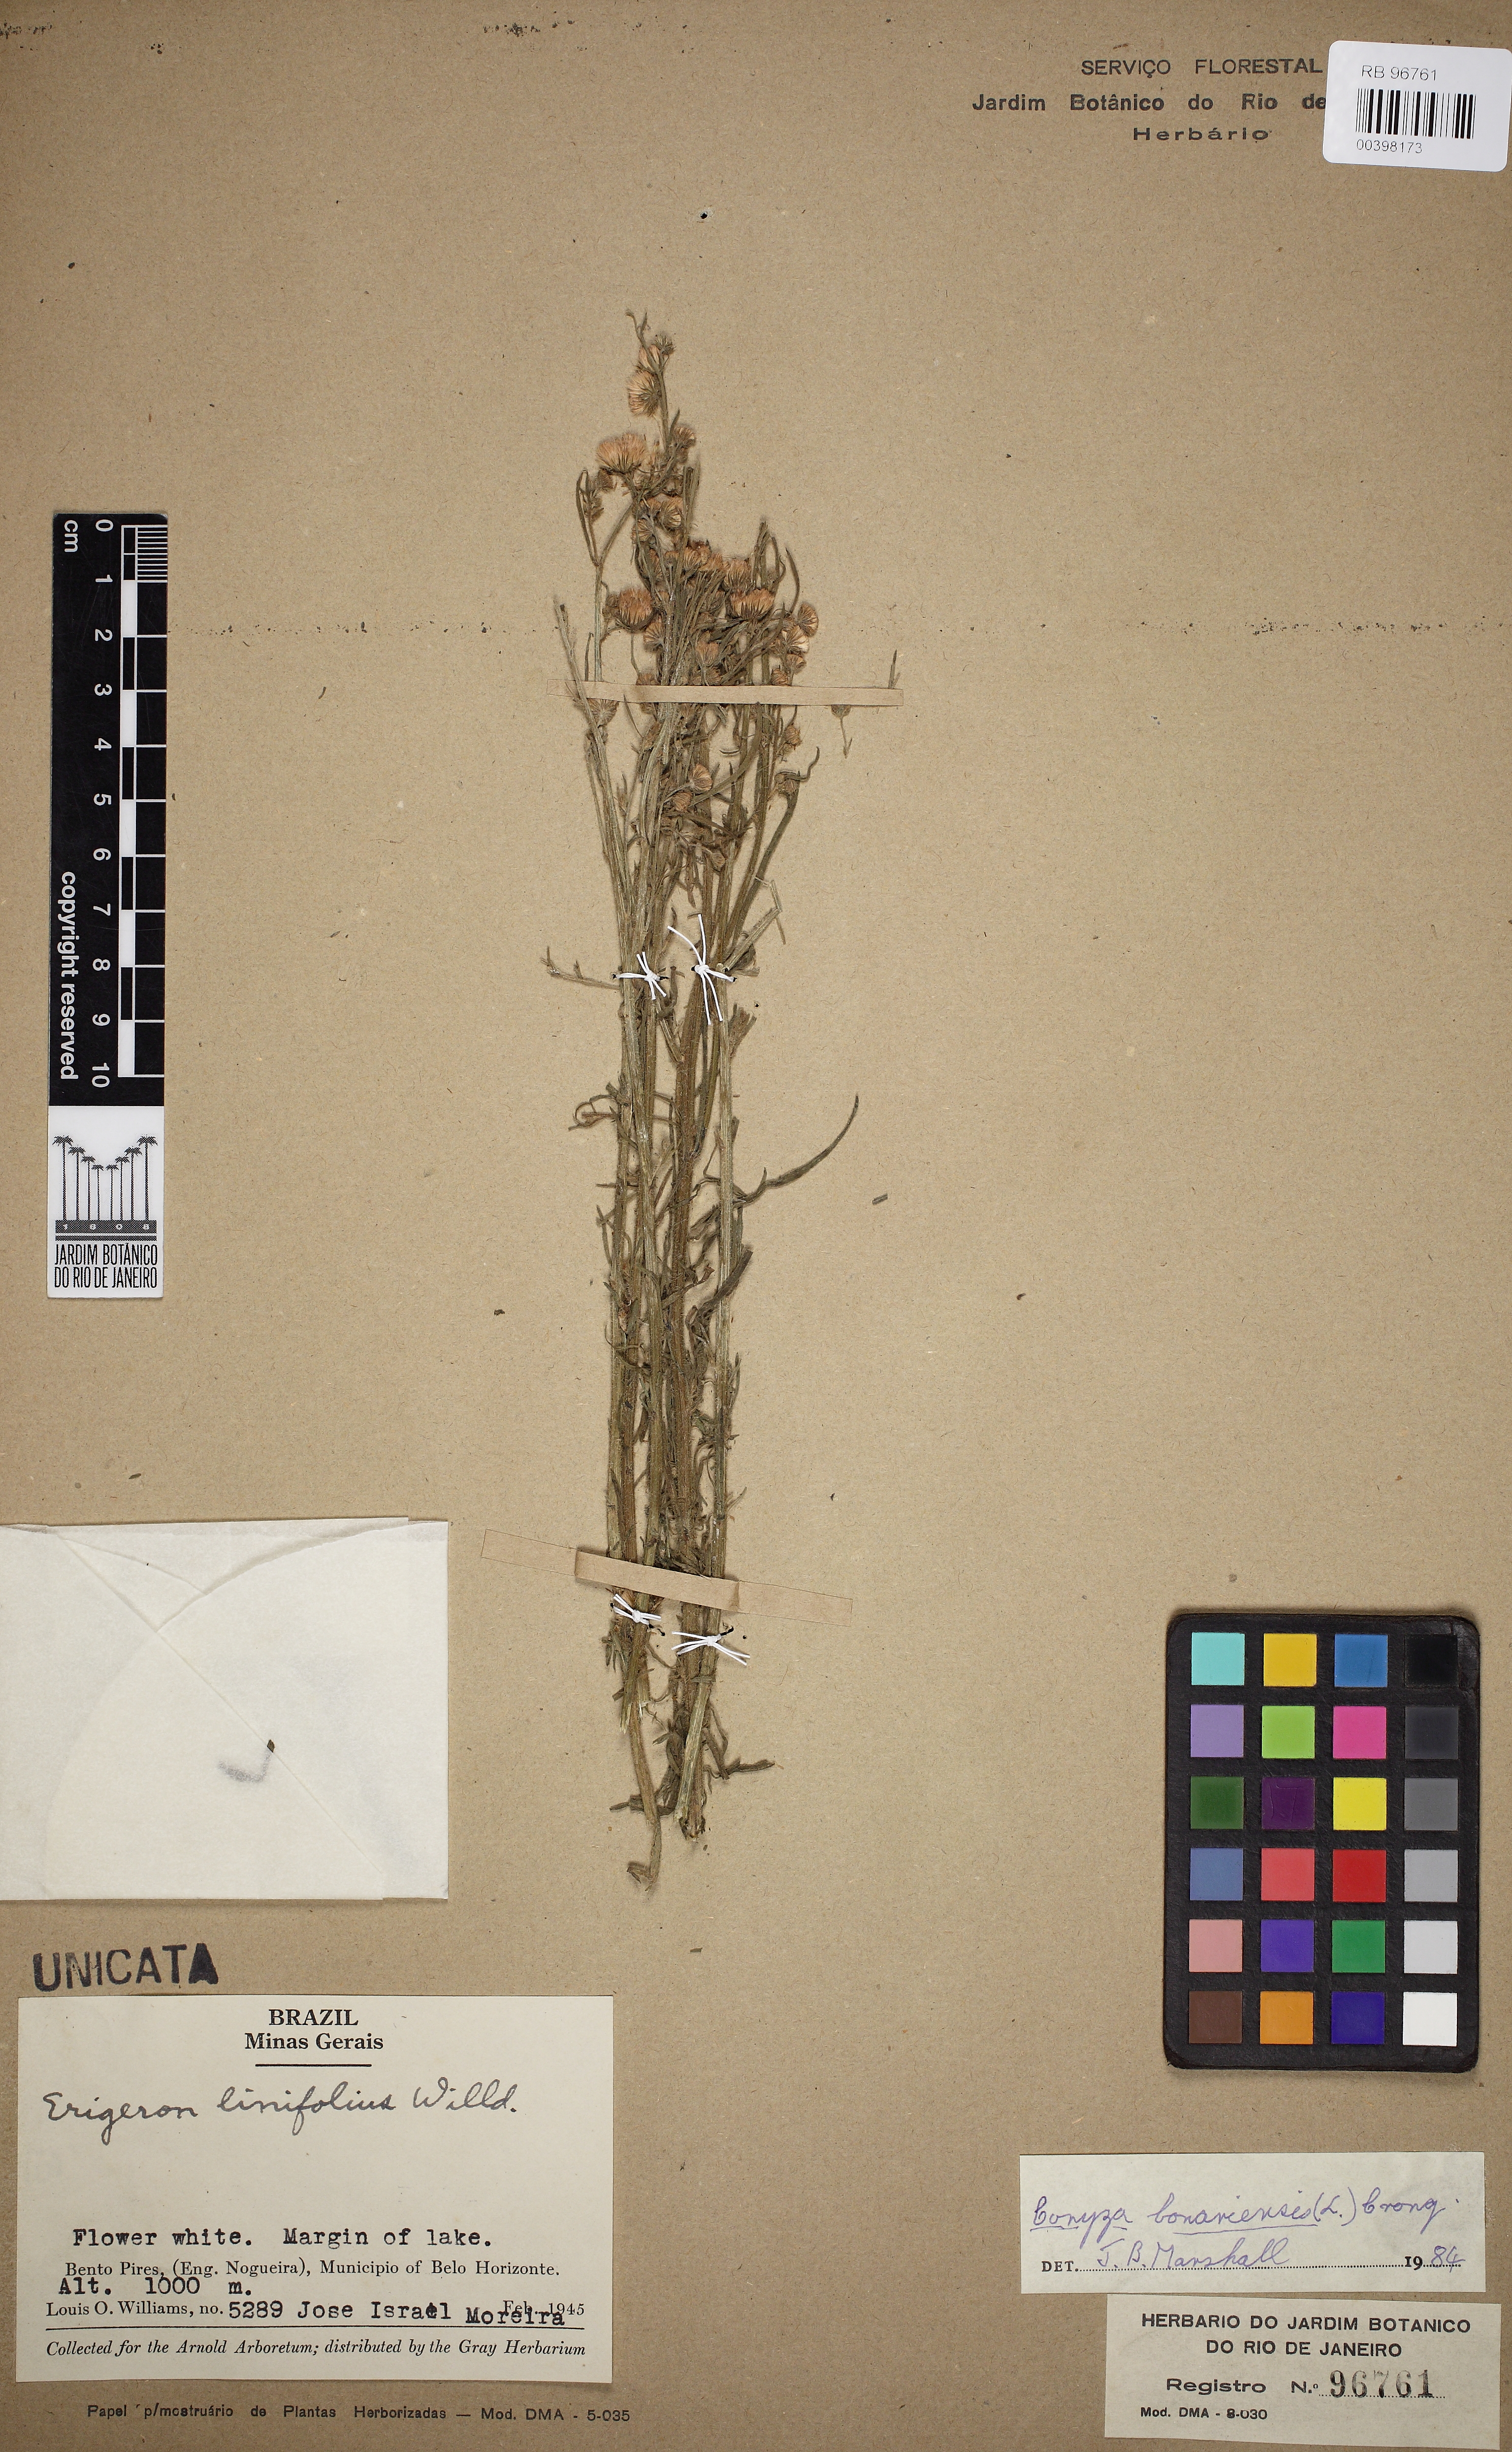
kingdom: Plantae
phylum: Tracheophyta
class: Magnoliopsida
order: Asterales
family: Asteraceae
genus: Erigeron
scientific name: Erigeron bonariensis
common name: Argentine fleabane
